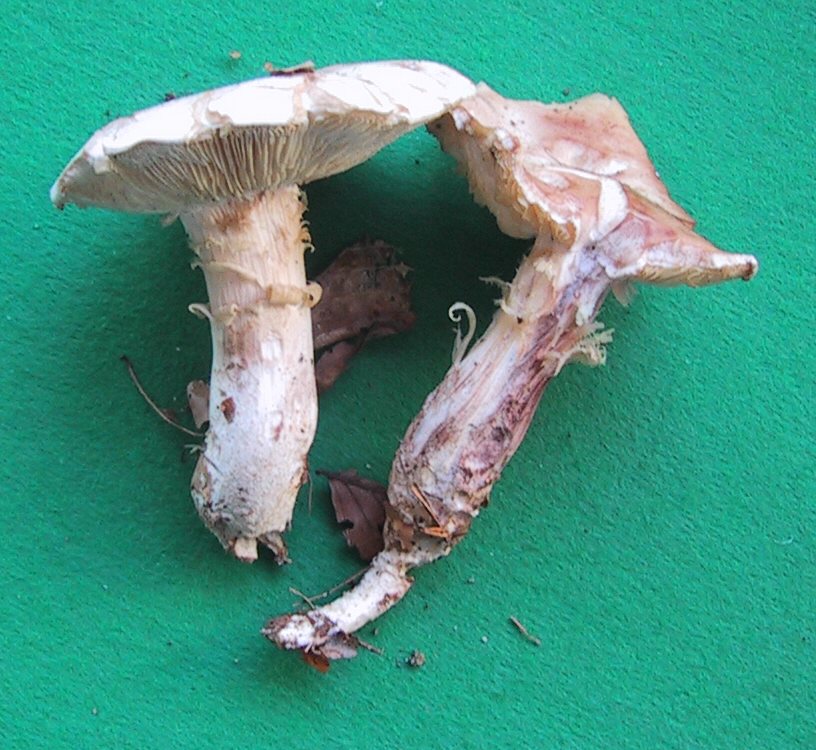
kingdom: Fungi
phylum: Basidiomycota
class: Agaricomycetes
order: Agaricales
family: Omphalotaceae
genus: Rhodocollybia
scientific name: Rhodocollybia maculata
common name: plettet fladhat
